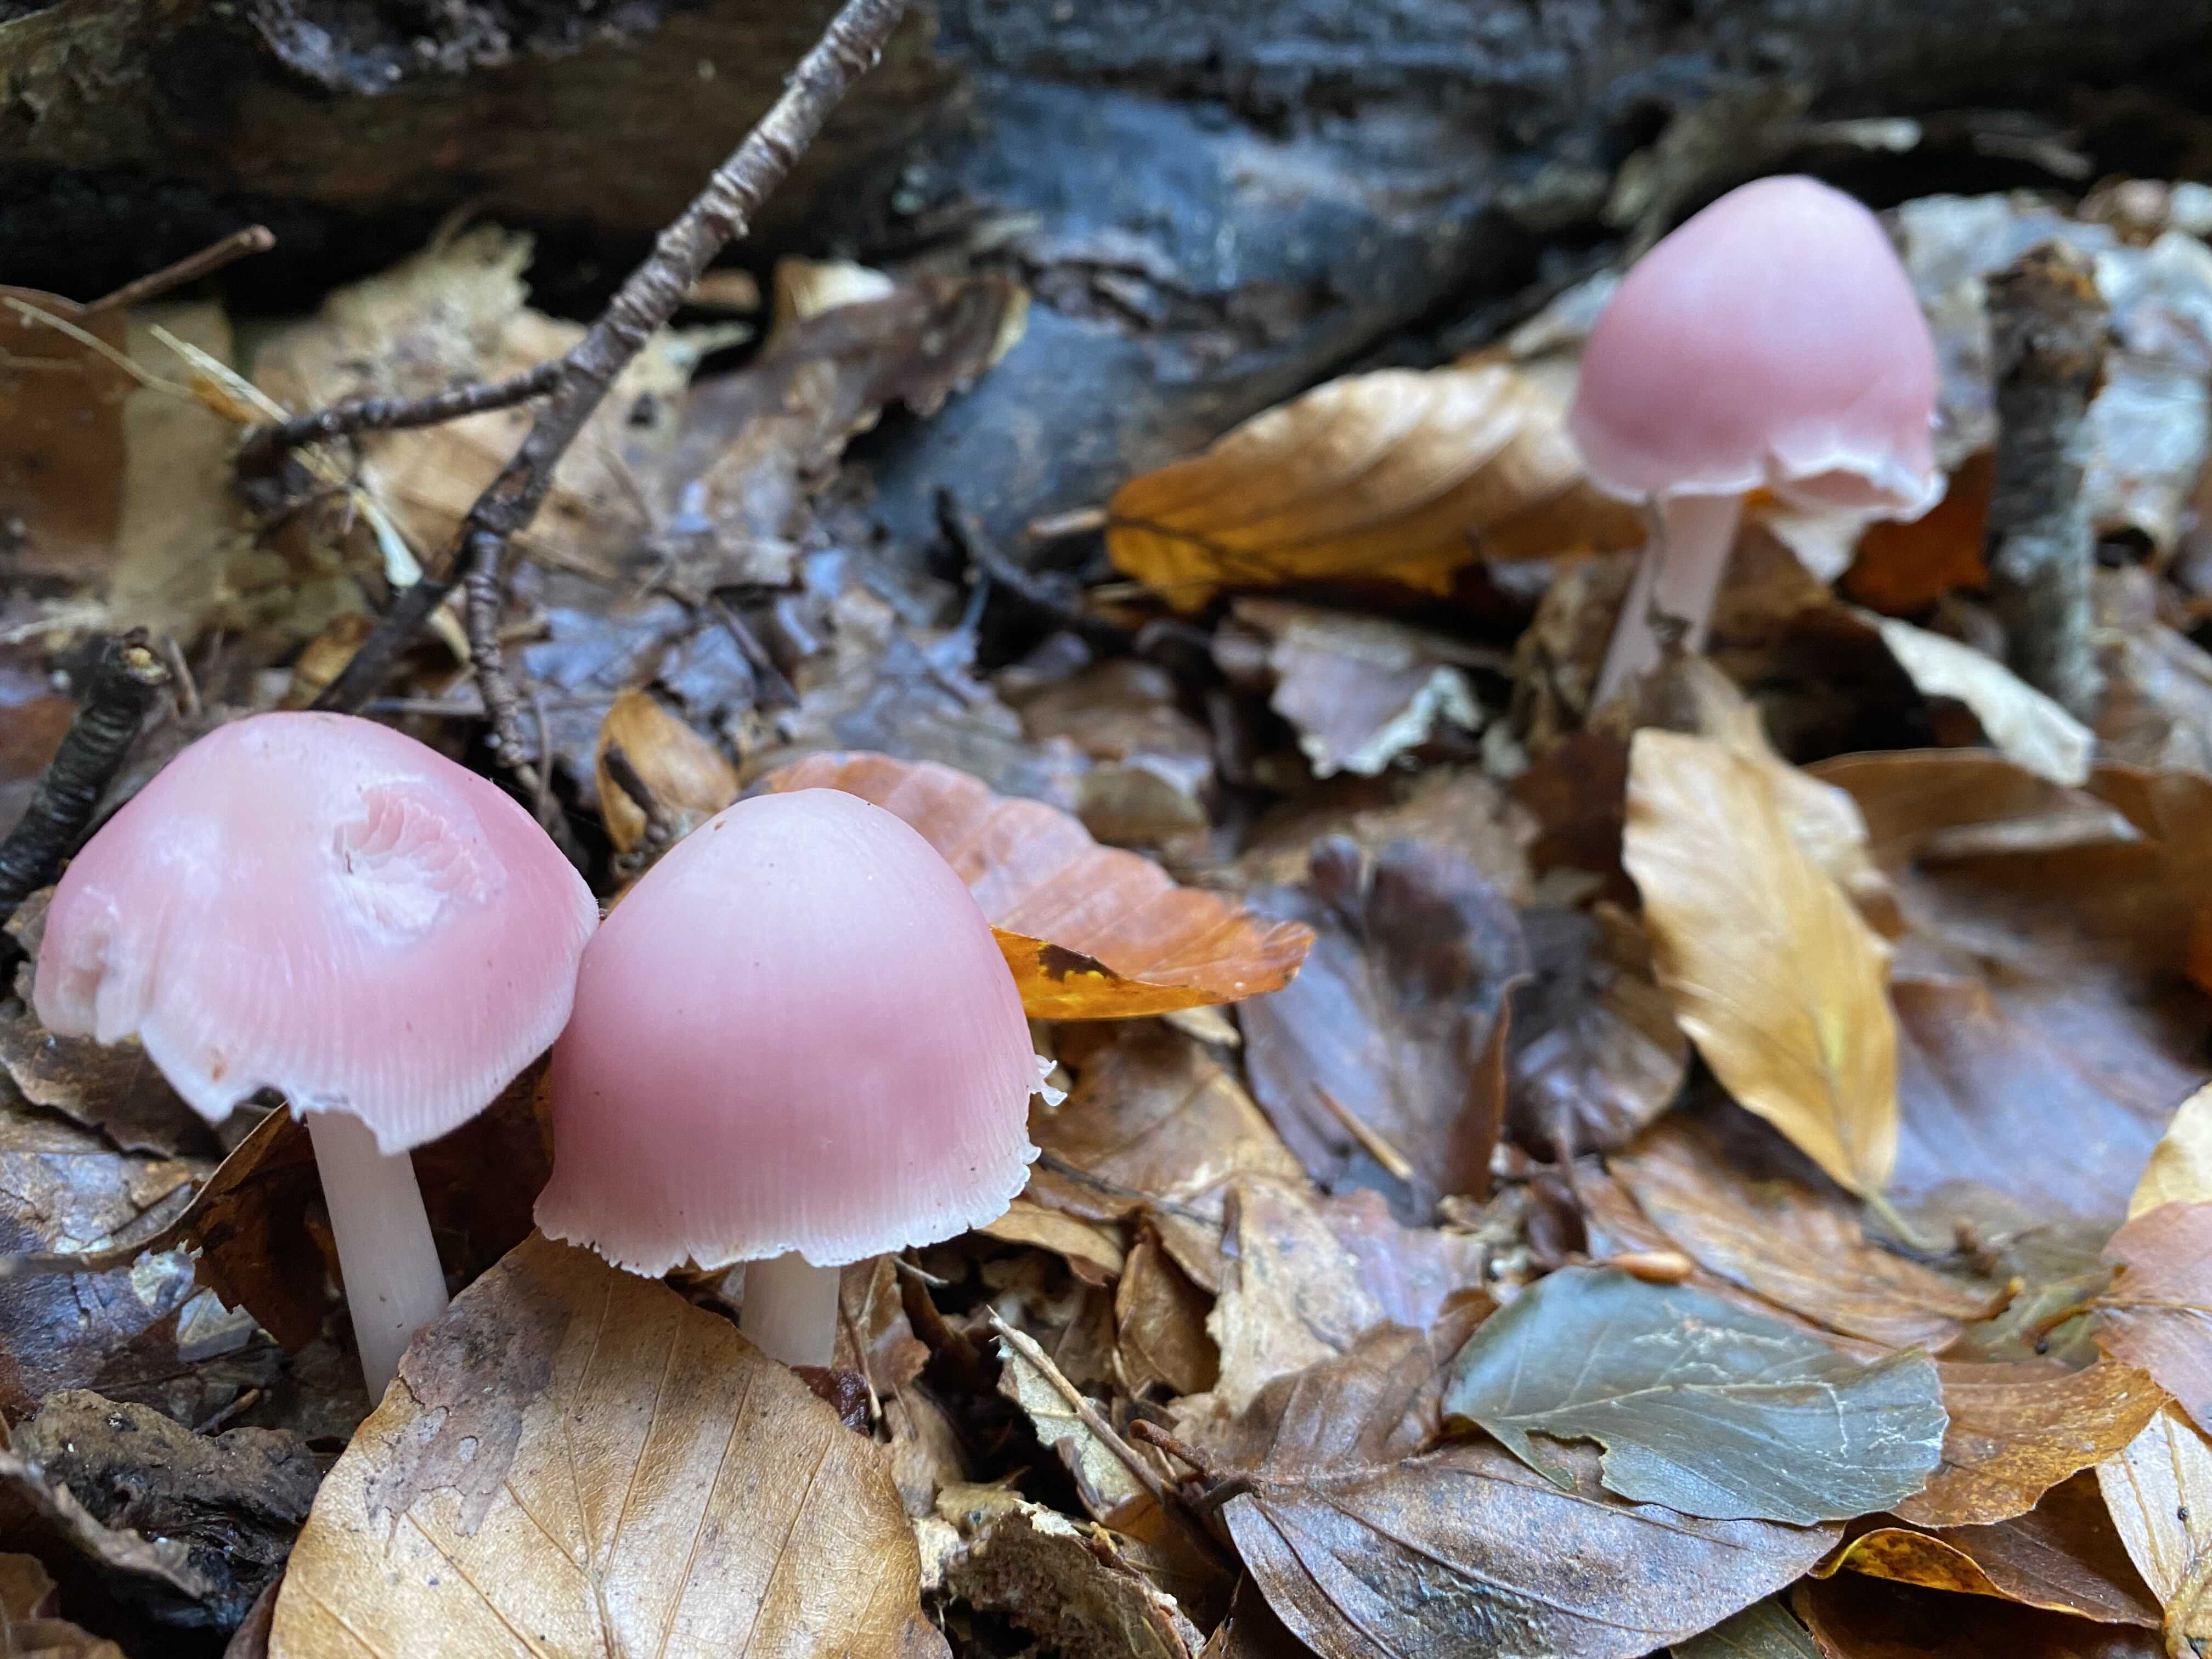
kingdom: Fungi
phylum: Basidiomycota
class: Agaricomycetes
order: Agaricales
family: Mycenaceae
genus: Mycena
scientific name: Mycena rosea
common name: rosa huesvamp
